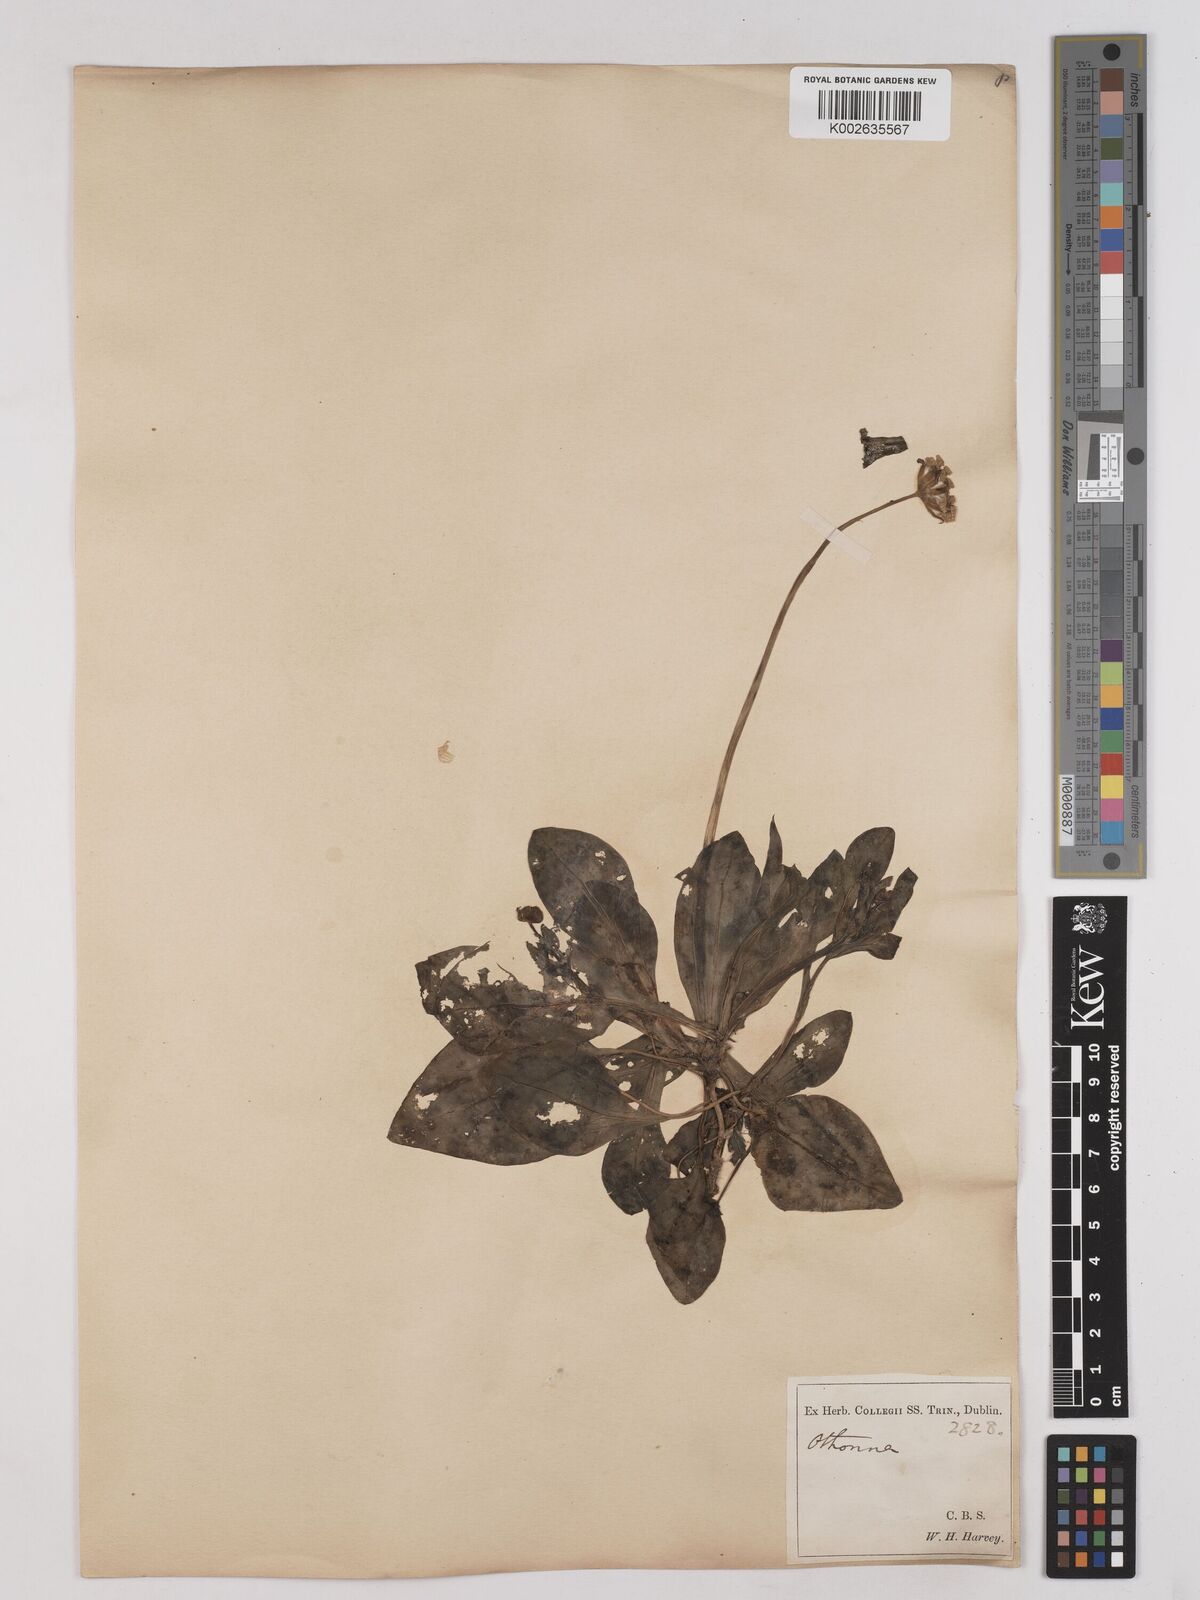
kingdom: Plantae
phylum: Tracheophyta
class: Magnoliopsida
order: Asterales
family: Asteraceae
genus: Othonna
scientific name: Othonna bulbosa
